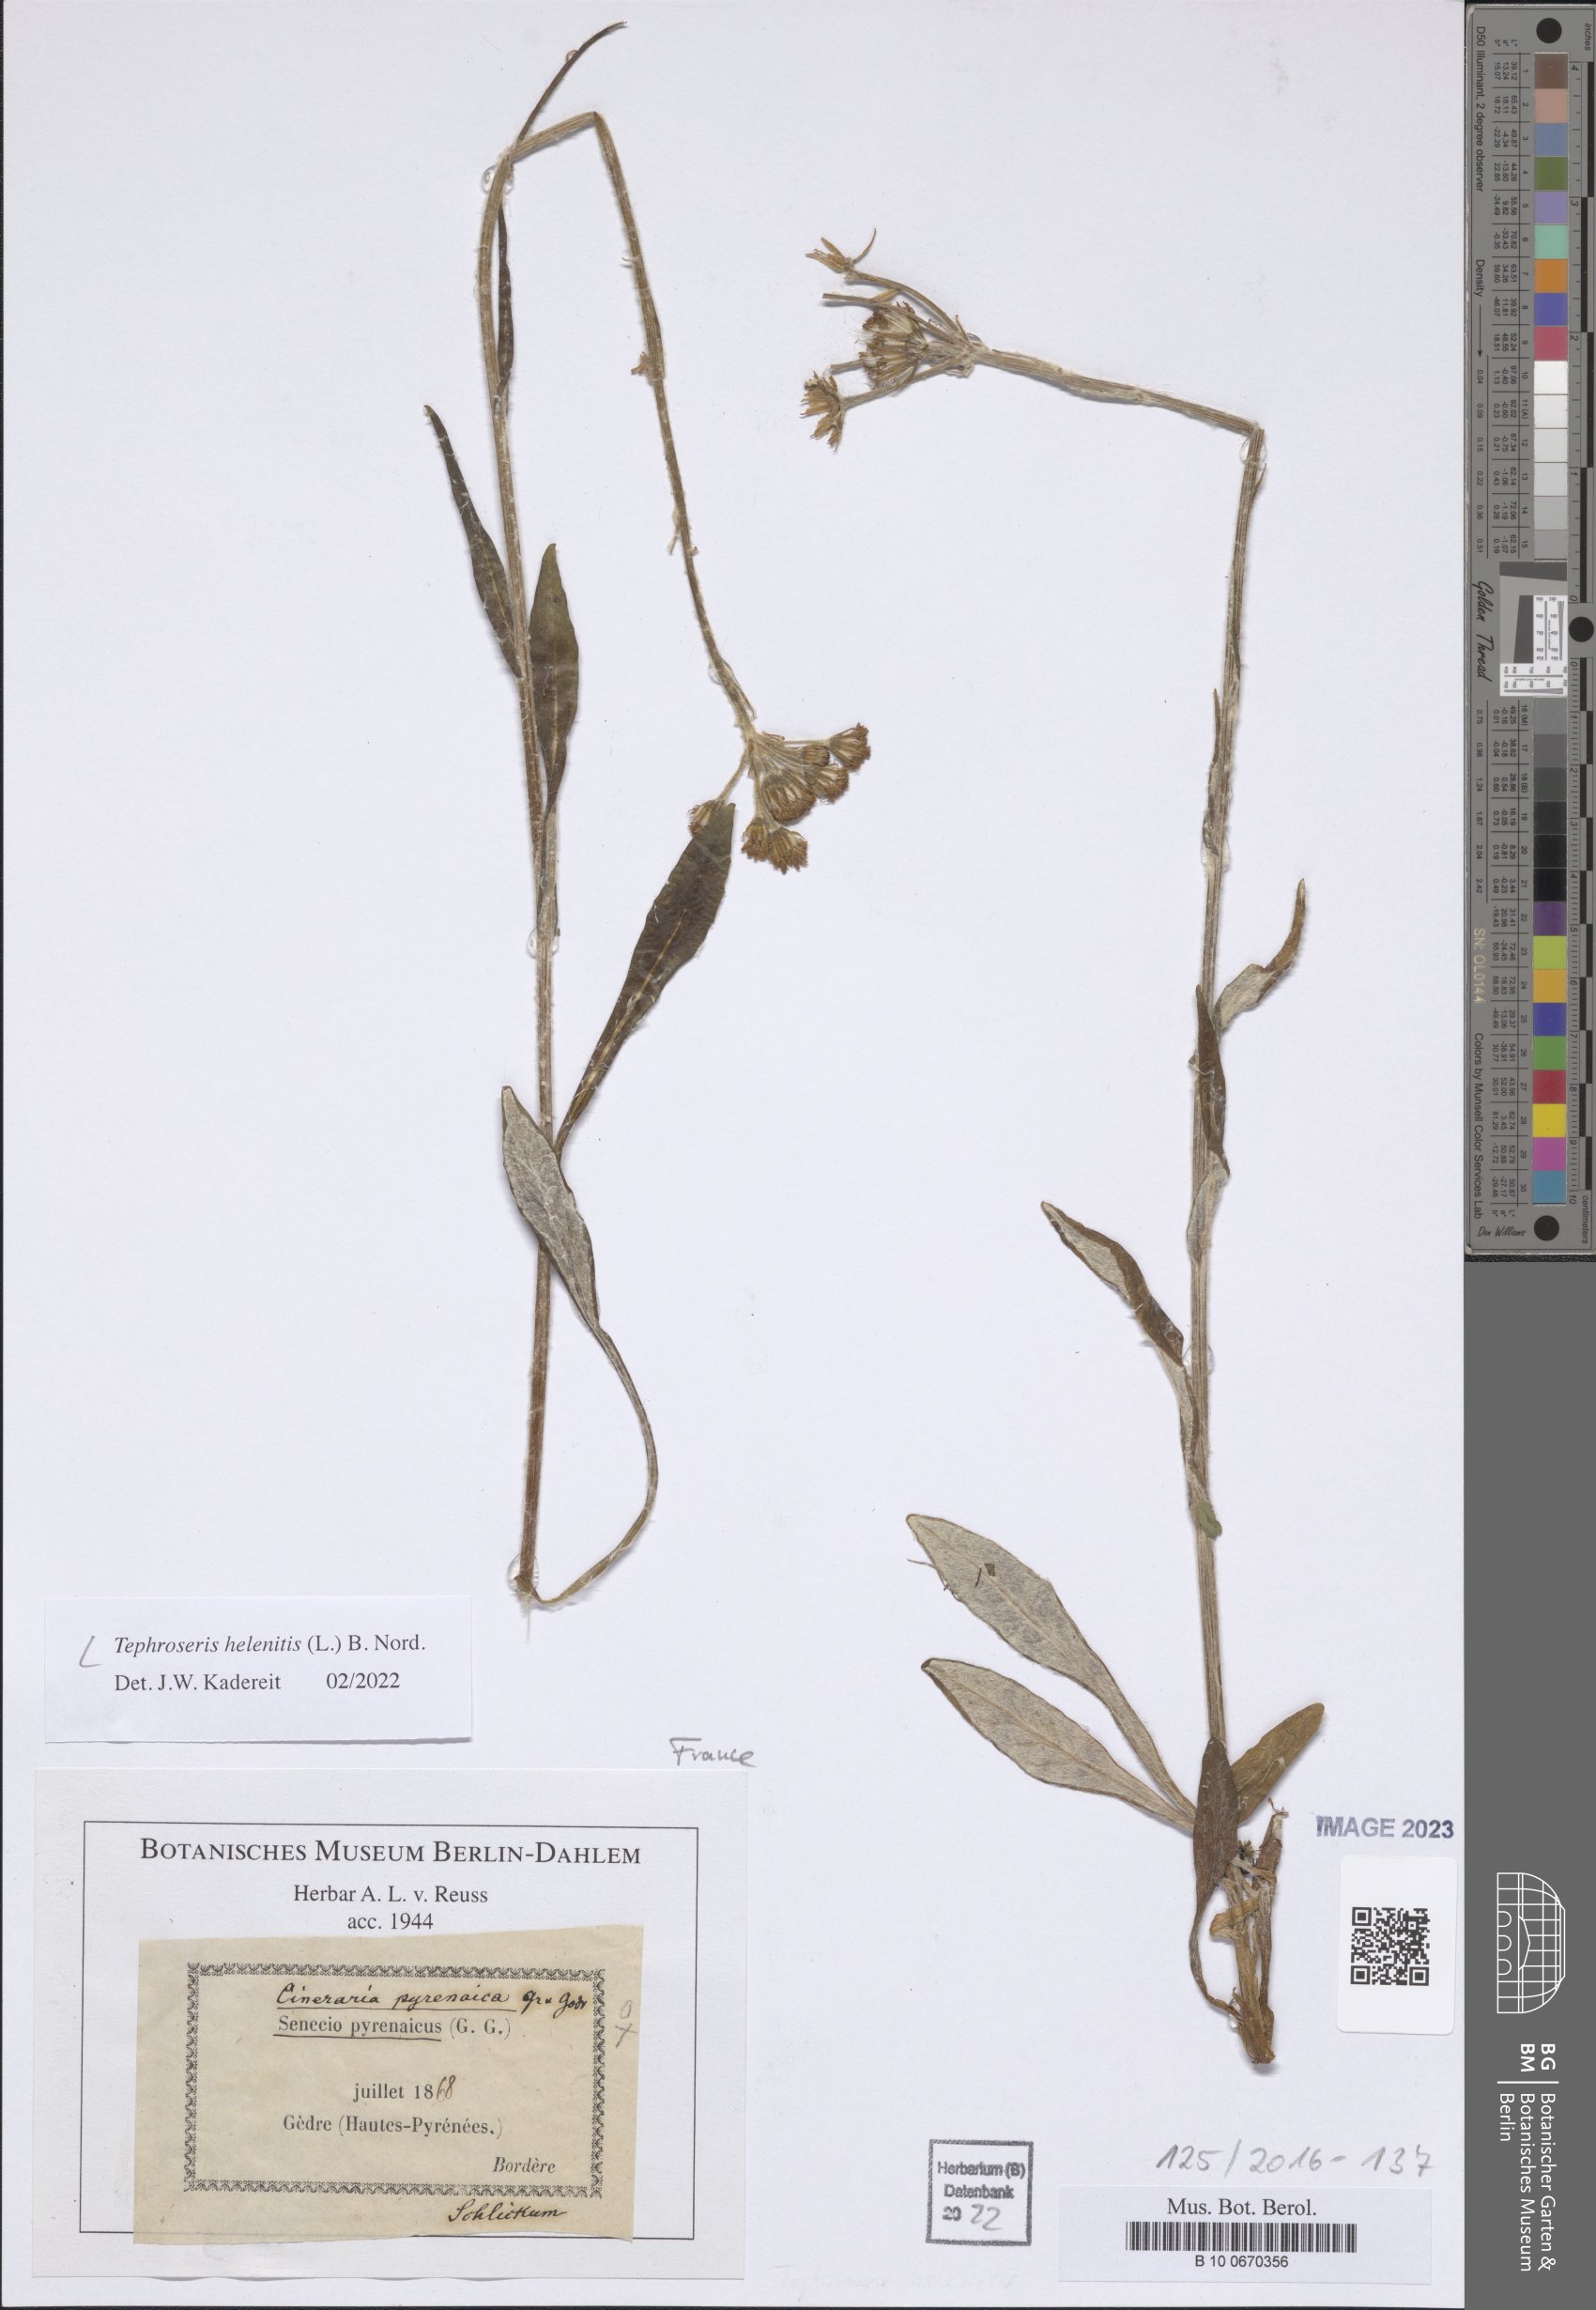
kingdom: Plantae
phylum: Tracheophyta
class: Magnoliopsida
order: Asterales
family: Asteraceae
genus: Tephroseris
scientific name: Tephroseris helenitis
